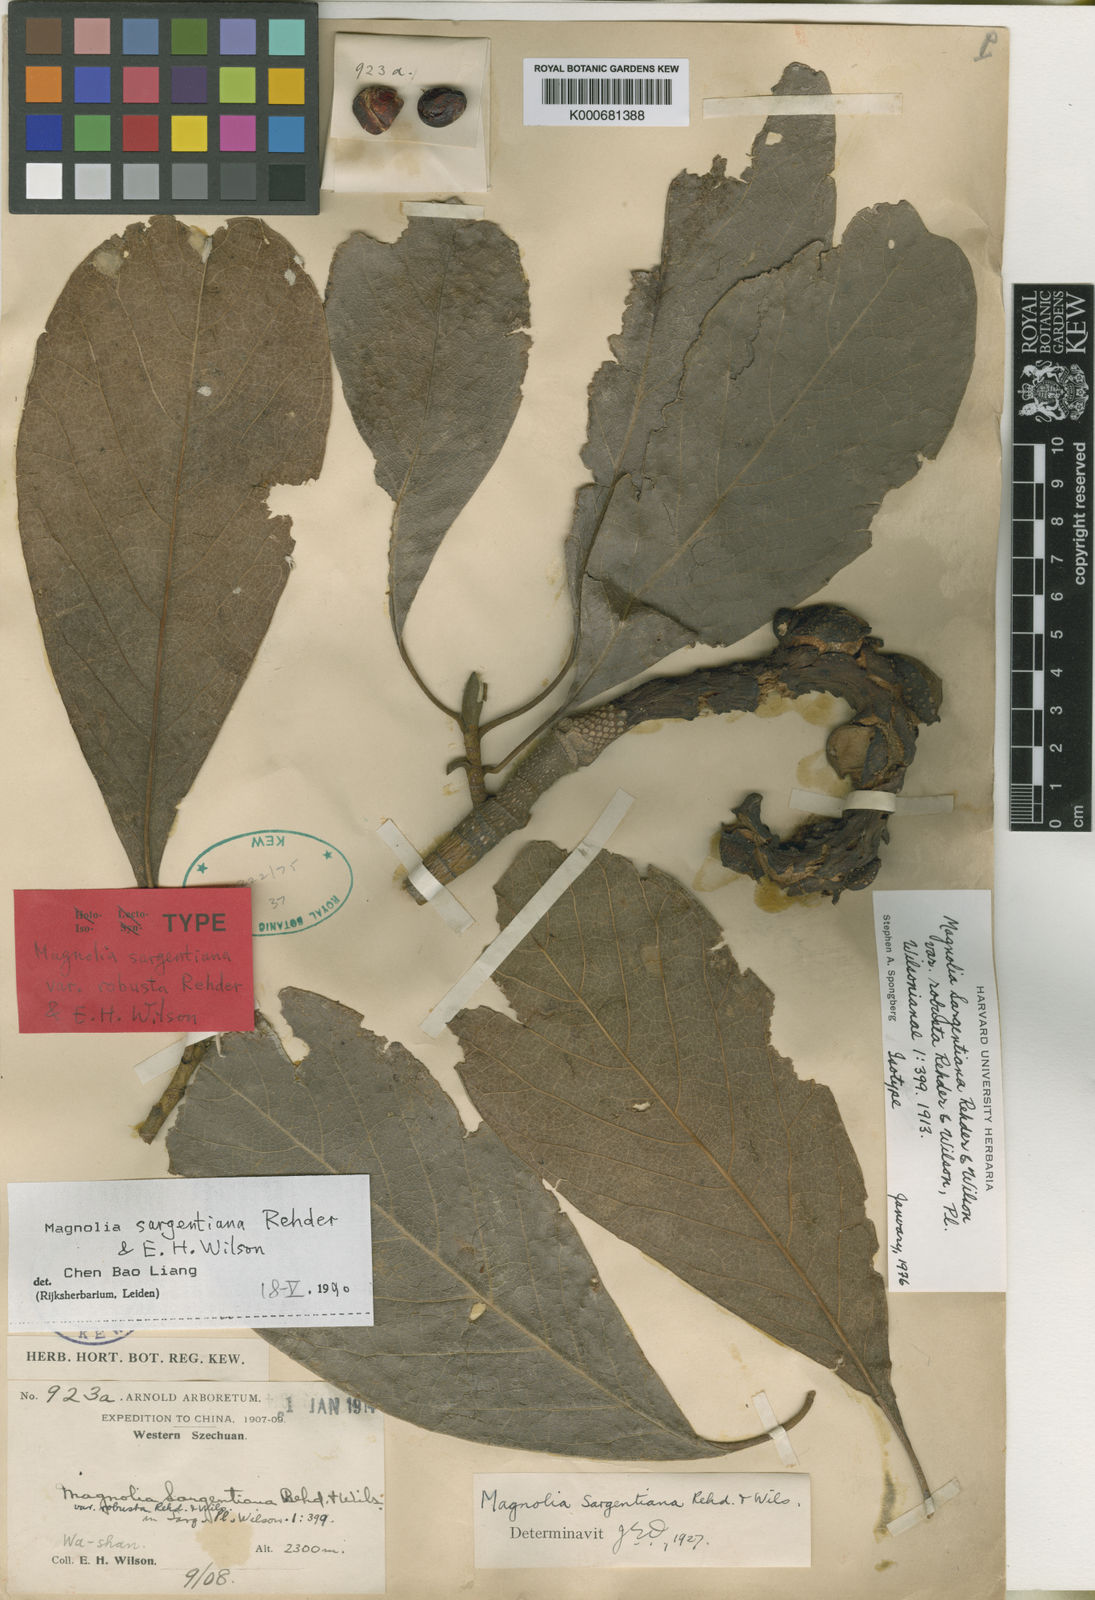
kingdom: Plantae
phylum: Tracheophyta
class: Magnoliopsida
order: Magnoliales
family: Magnoliaceae
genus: Magnolia
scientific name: Magnolia sargentiana
